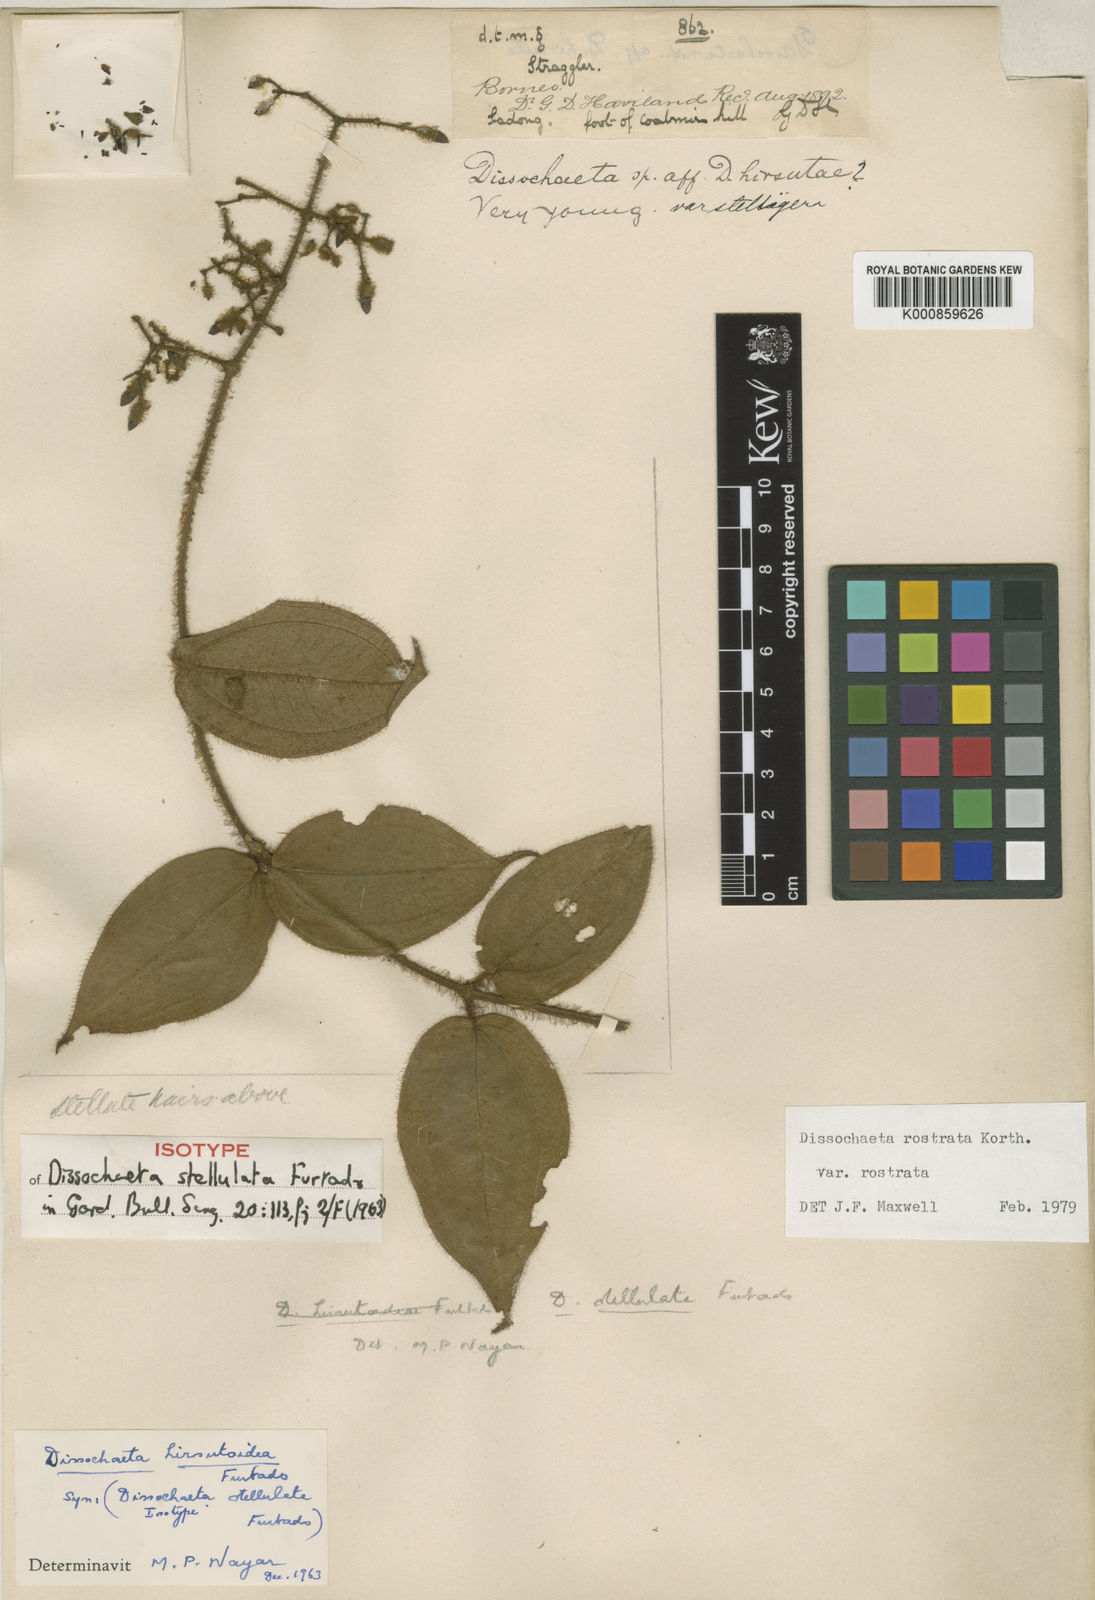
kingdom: Plantae
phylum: Tracheophyta
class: Magnoliopsida
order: Myrtales
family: Melastomataceae
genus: Macrolenes
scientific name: Macrolenes rostrata
